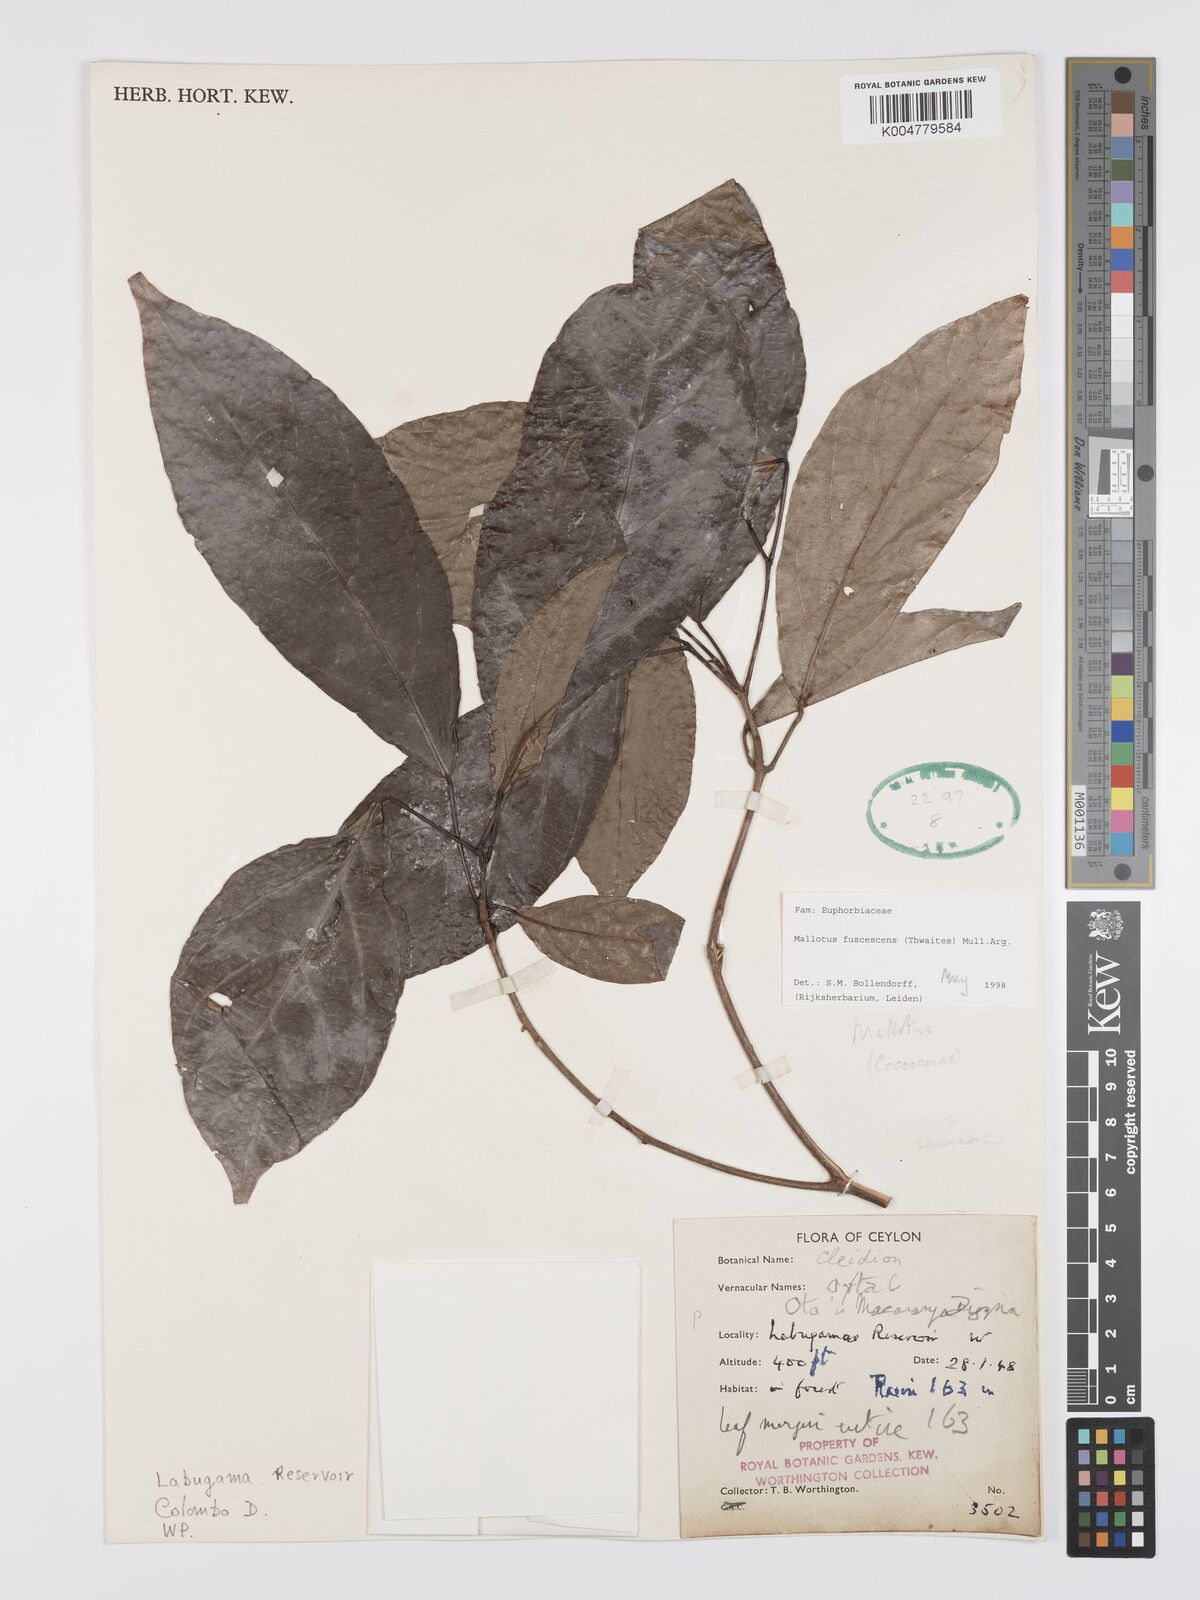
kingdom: Plantae
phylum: Tracheophyta
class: Magnoliopsida
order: Malpighiales
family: Euphorbiaceae
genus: Mallotus
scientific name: Mallotus fuscescens
